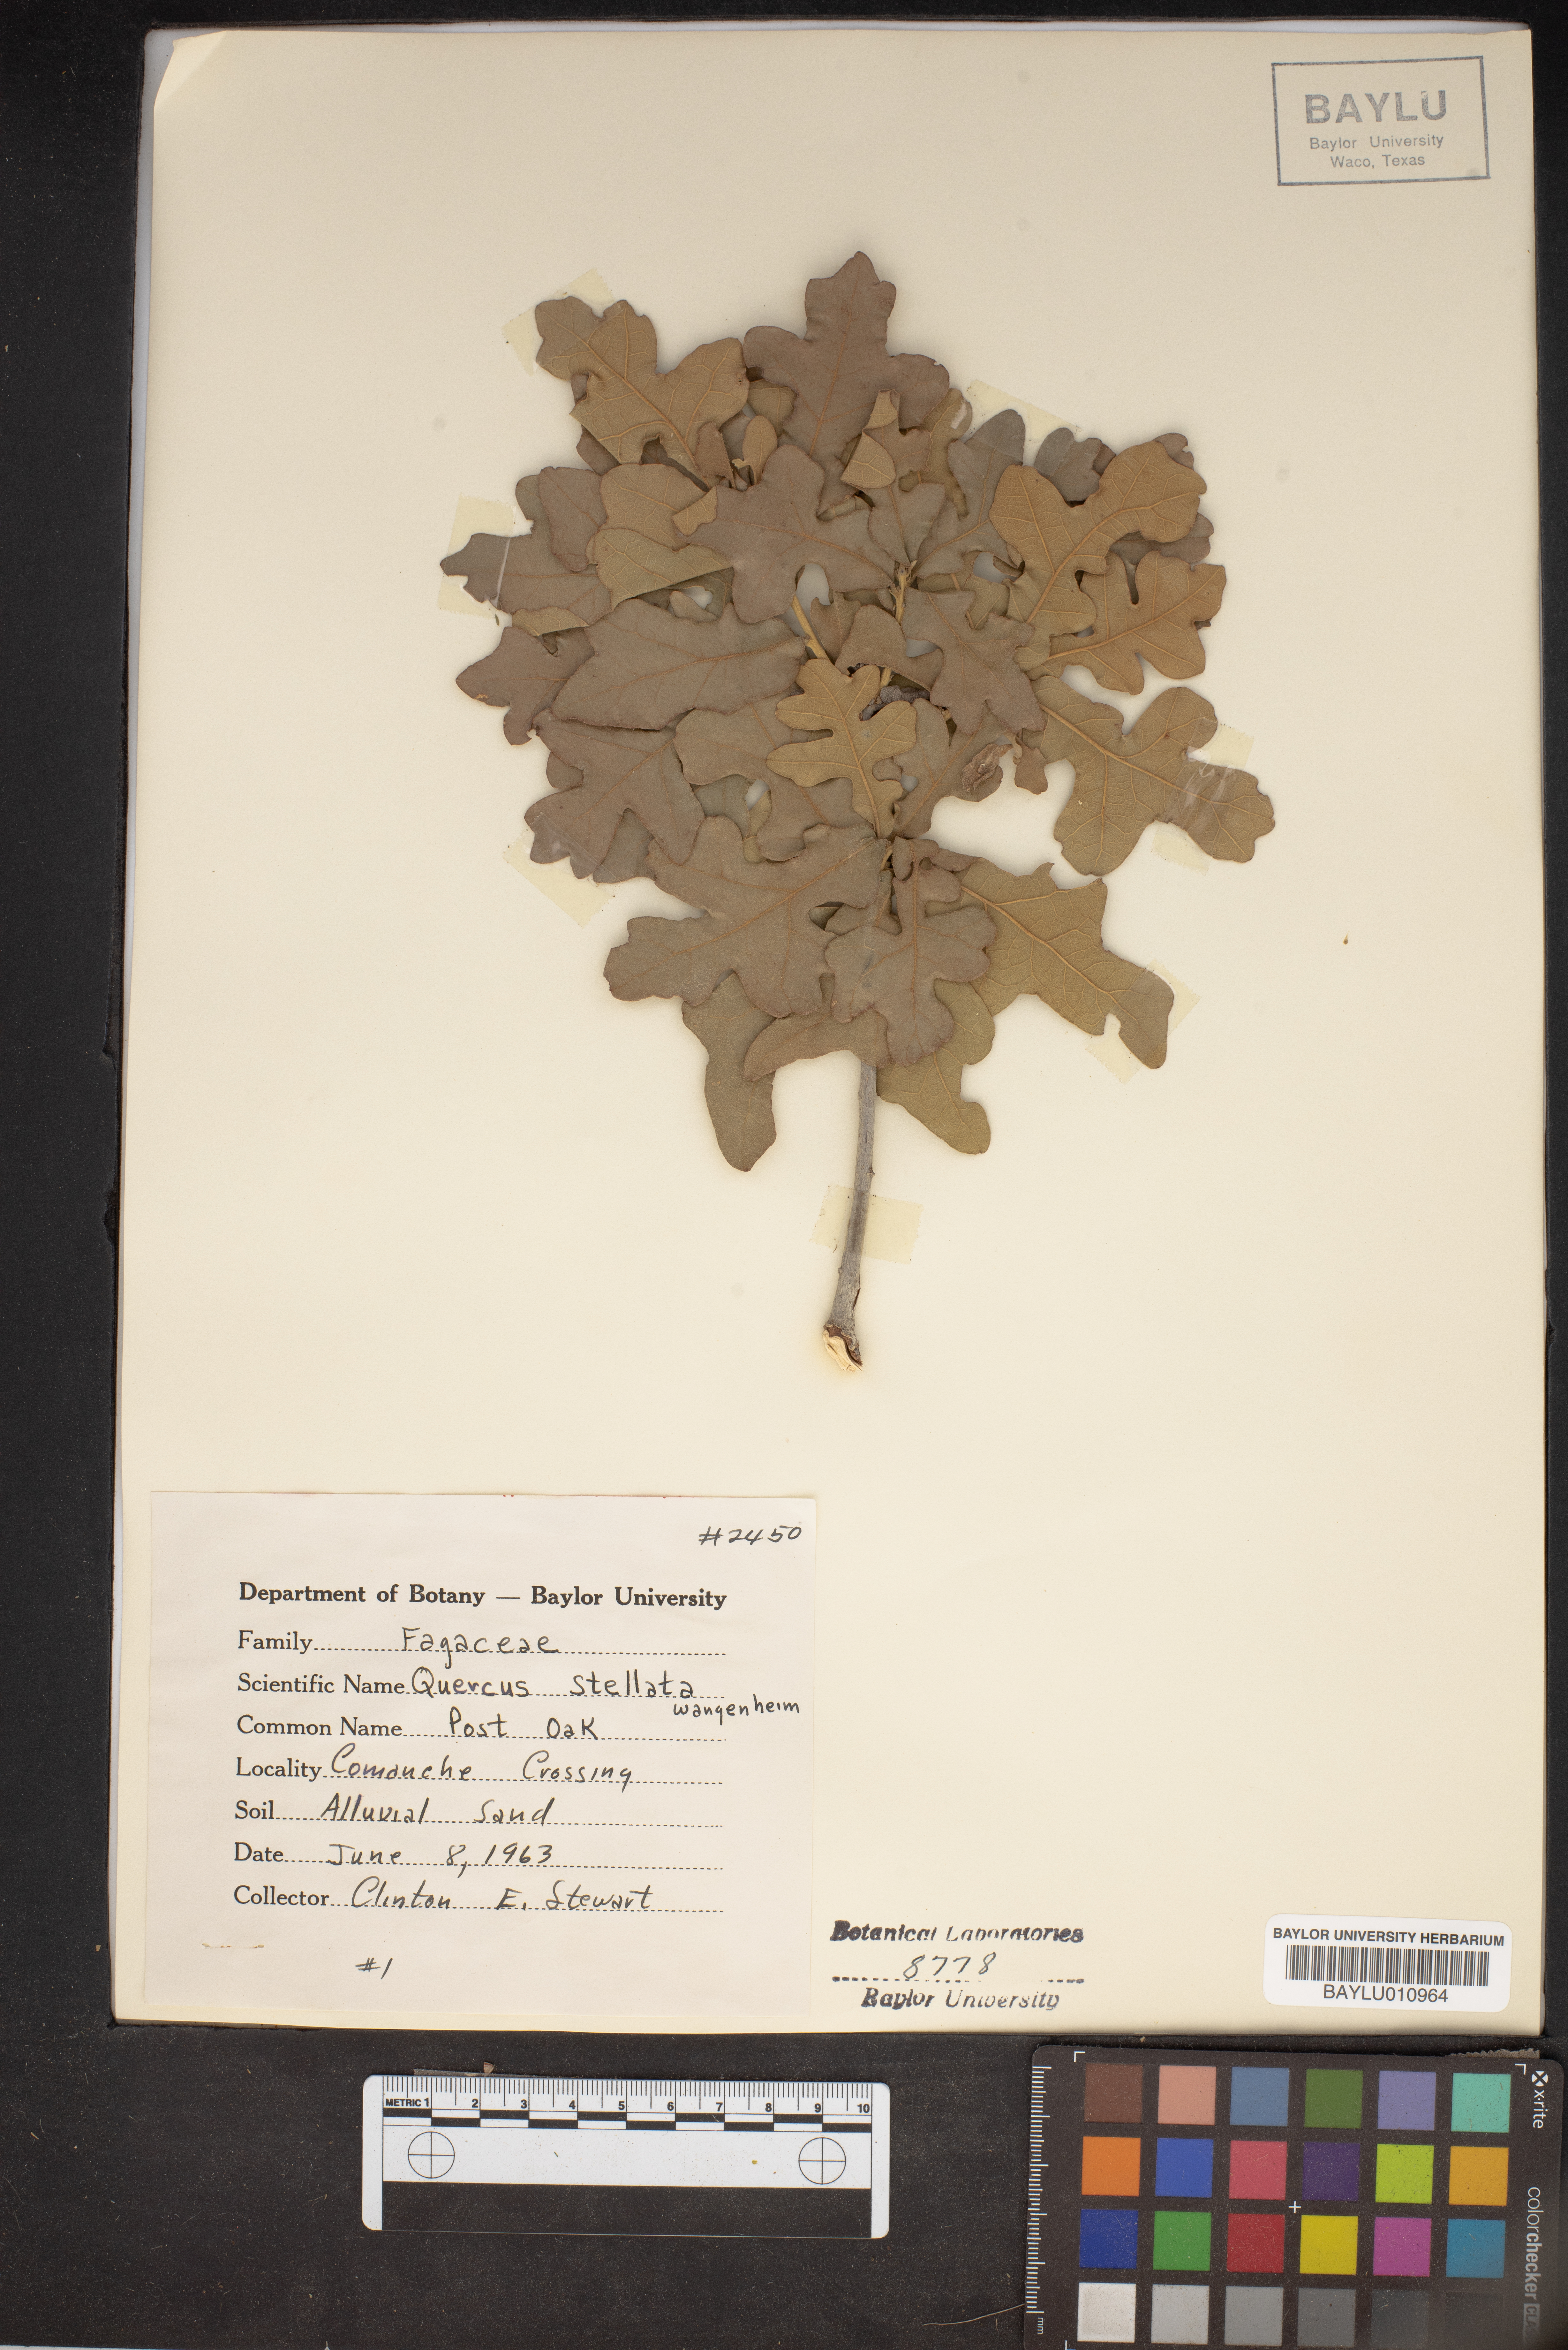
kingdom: Plantae
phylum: Tracheophyta
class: Magnoliopsida
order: Fagales
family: Fagaceae
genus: Quercus
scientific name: Quercus stellata
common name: Post oak
